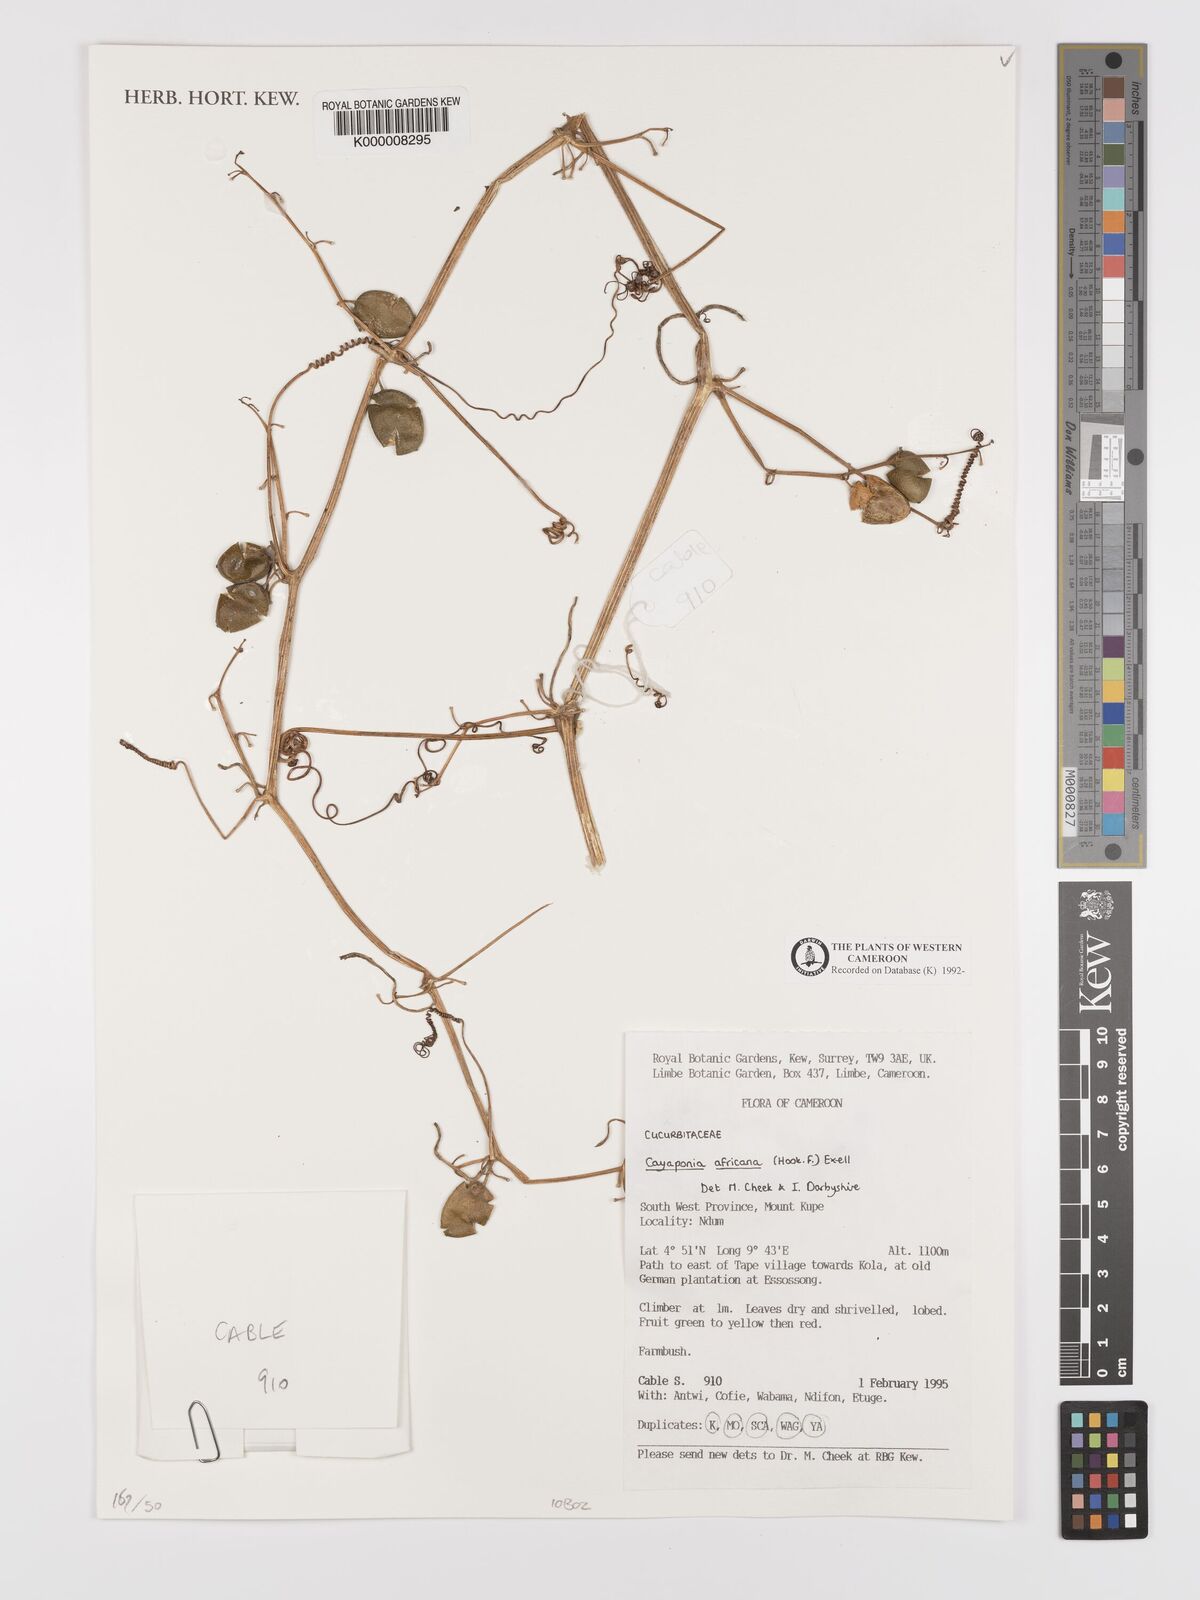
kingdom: Plantae
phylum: Tracheophyta
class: Magnoliopsida
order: Cucurbitales
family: Cucurbitaceae
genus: Cayaponia
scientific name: Cayaponia africana
